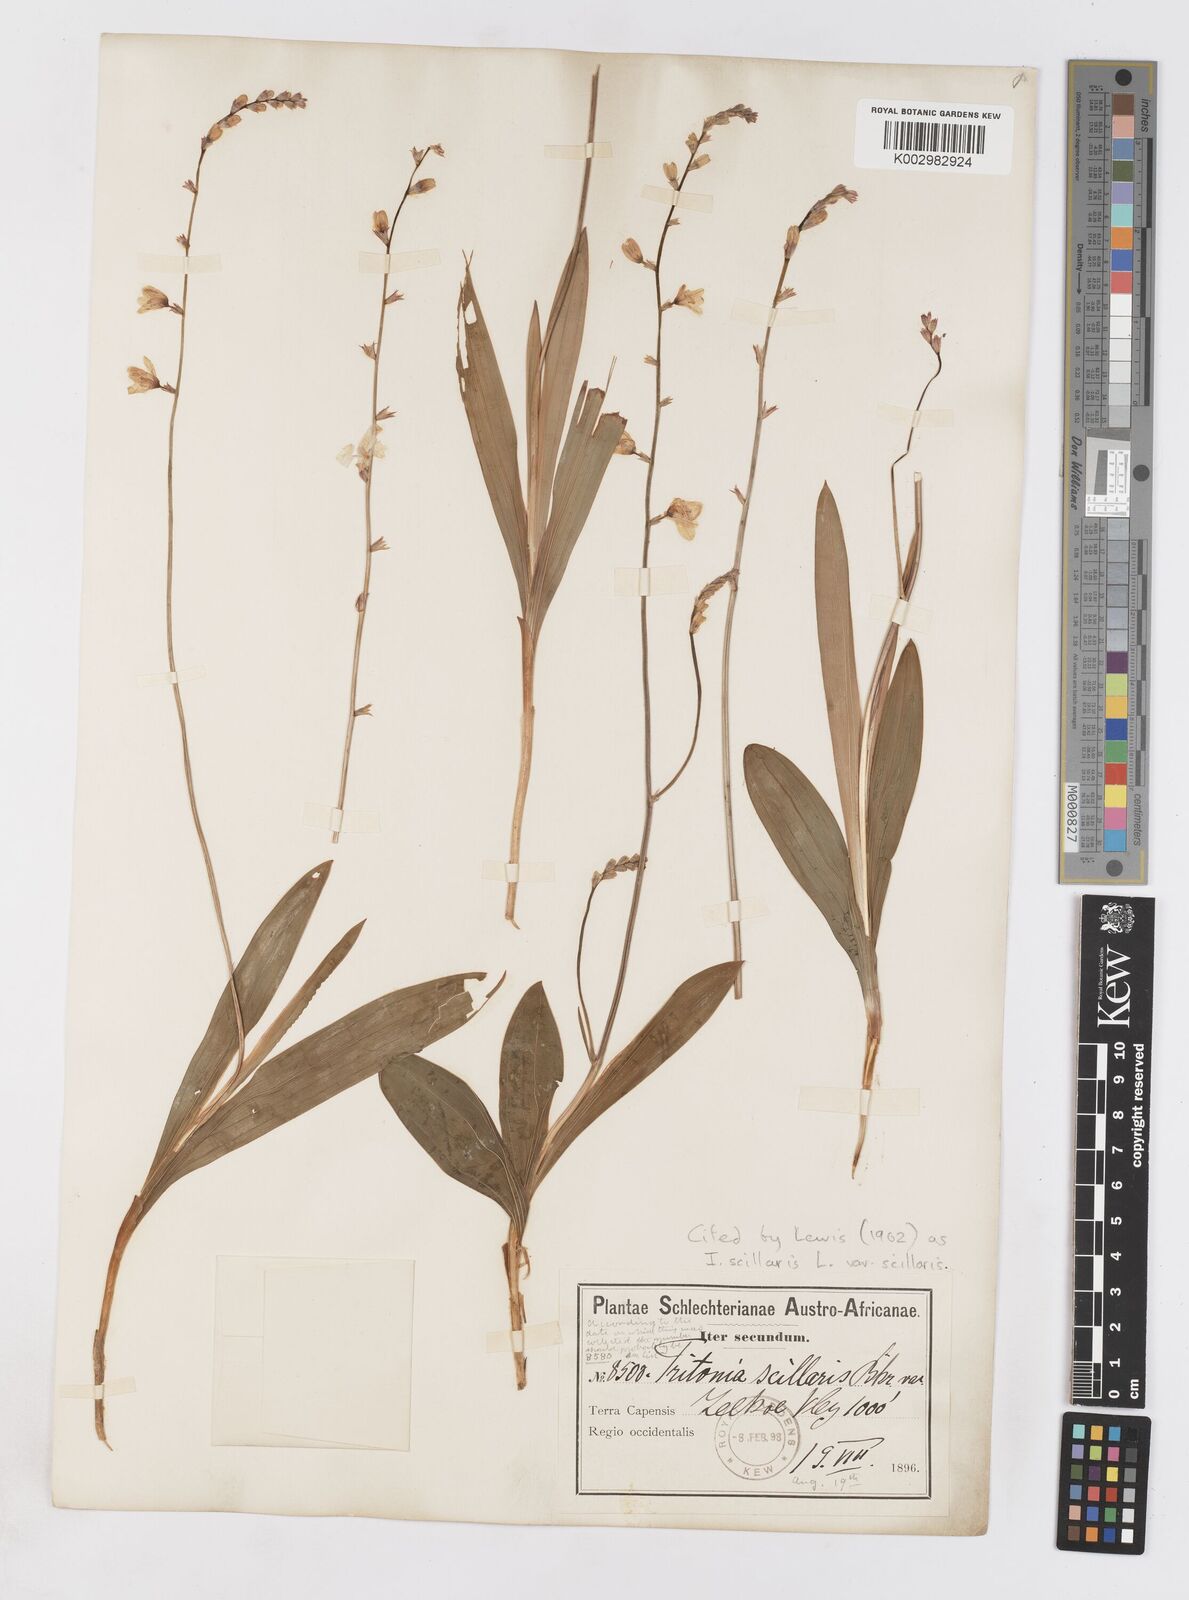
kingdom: Plantae
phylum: Tracheophyta
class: Liliopsida
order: Asparagales
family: Iridaceae
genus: Ixia
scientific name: Ixia scillaris
